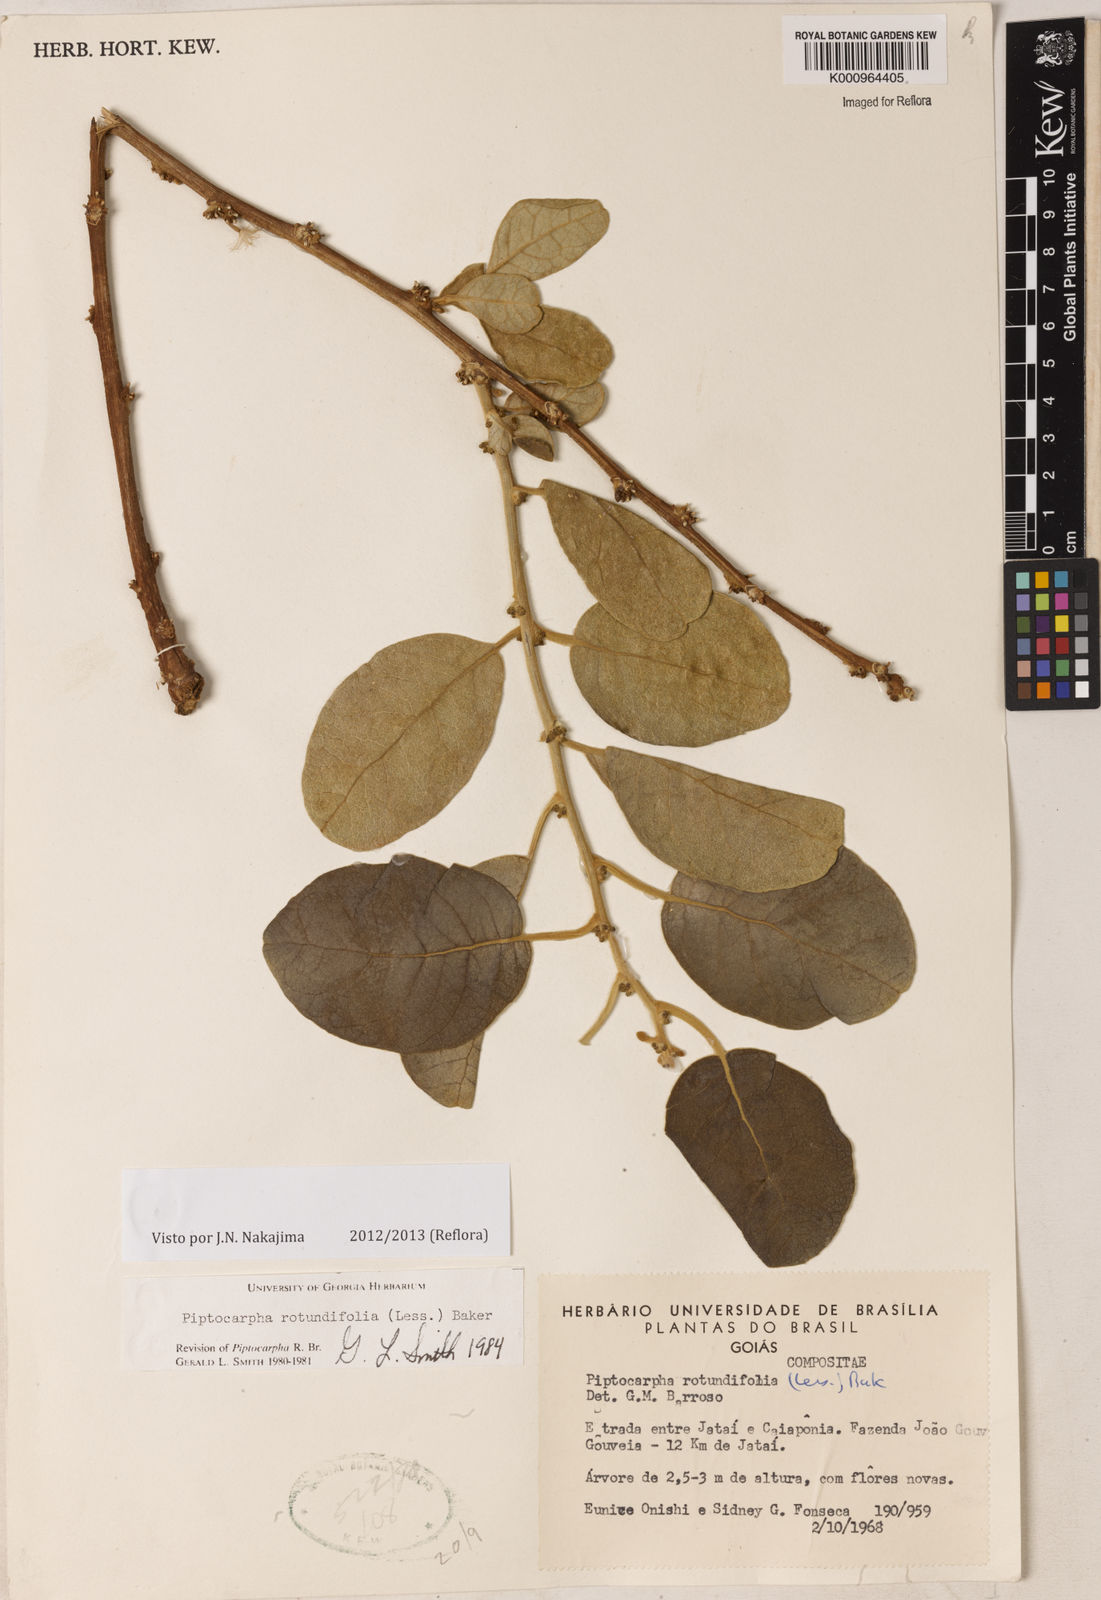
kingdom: Plantae
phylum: Tracheophyta
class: Magnoliopsida
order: Asterales
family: Asteraceae
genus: Piptocarpha
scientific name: Piptocarpha rotundifolia
